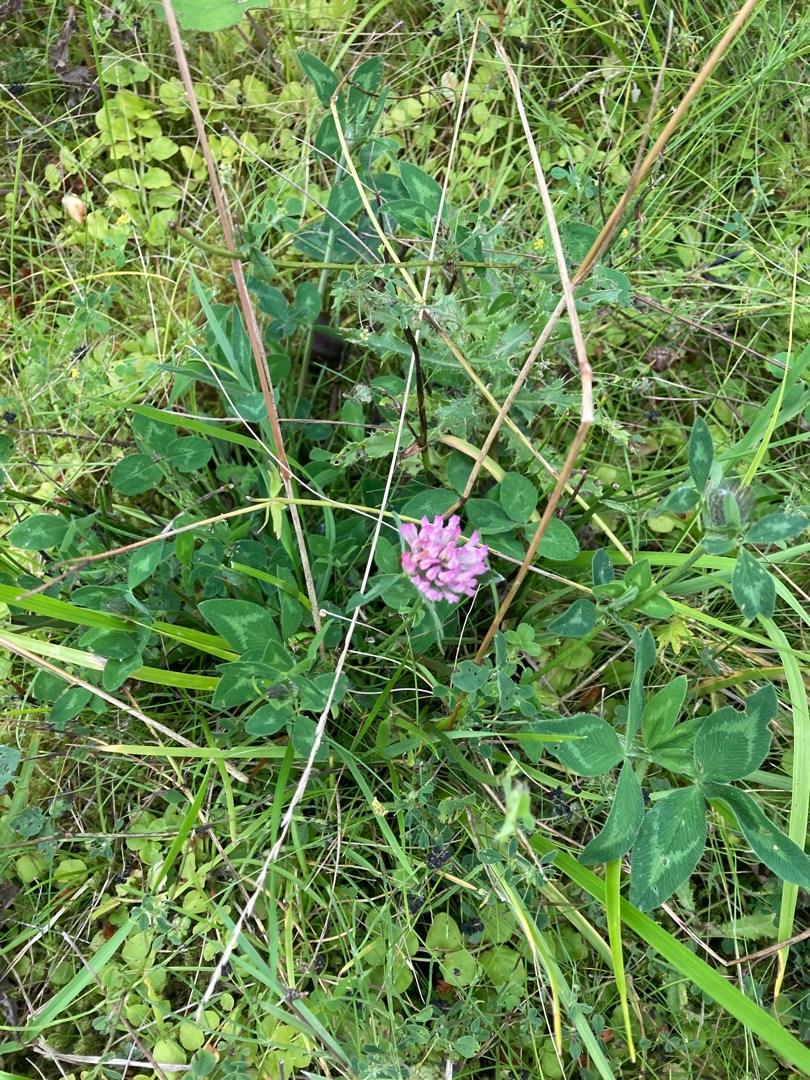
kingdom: Plantae
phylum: Tracheophyta
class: Magnoliopsida
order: Fabales
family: Fabaceae
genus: Trifolium
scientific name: Trifolium pratense
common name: Rød-kløver
